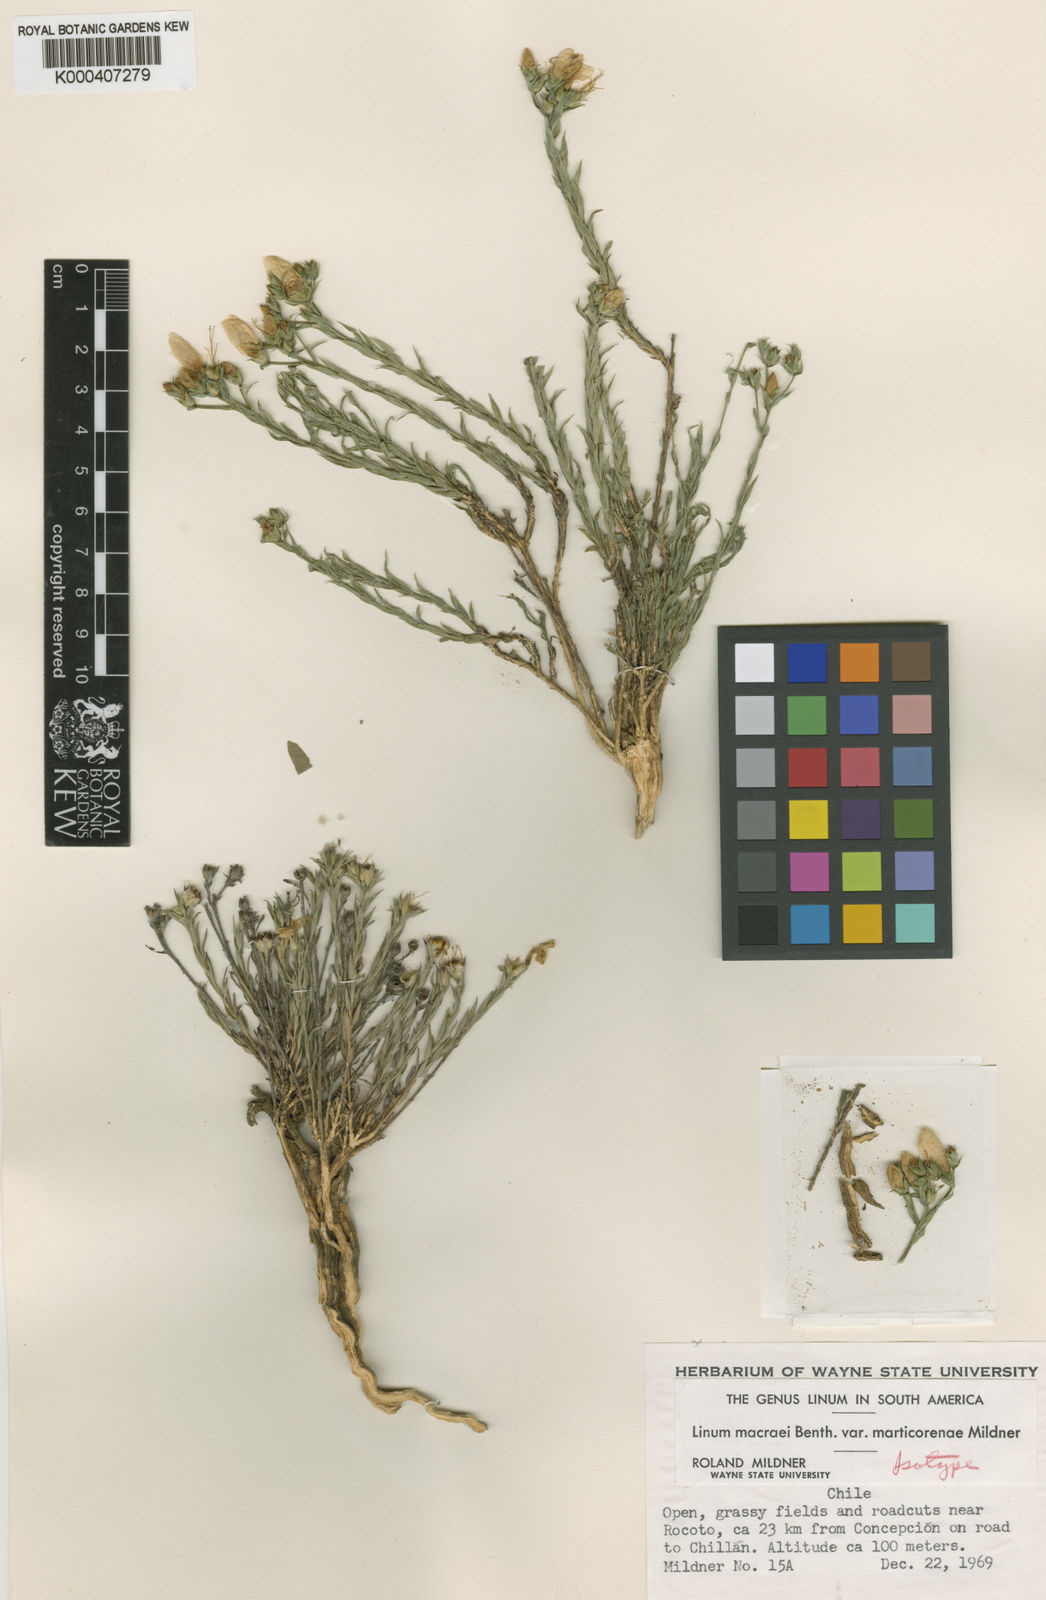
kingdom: Plantae
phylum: Tracheophyta
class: Magnoliopsida
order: Malpighiales
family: Linaceae
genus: Linum
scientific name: Linum macraei
